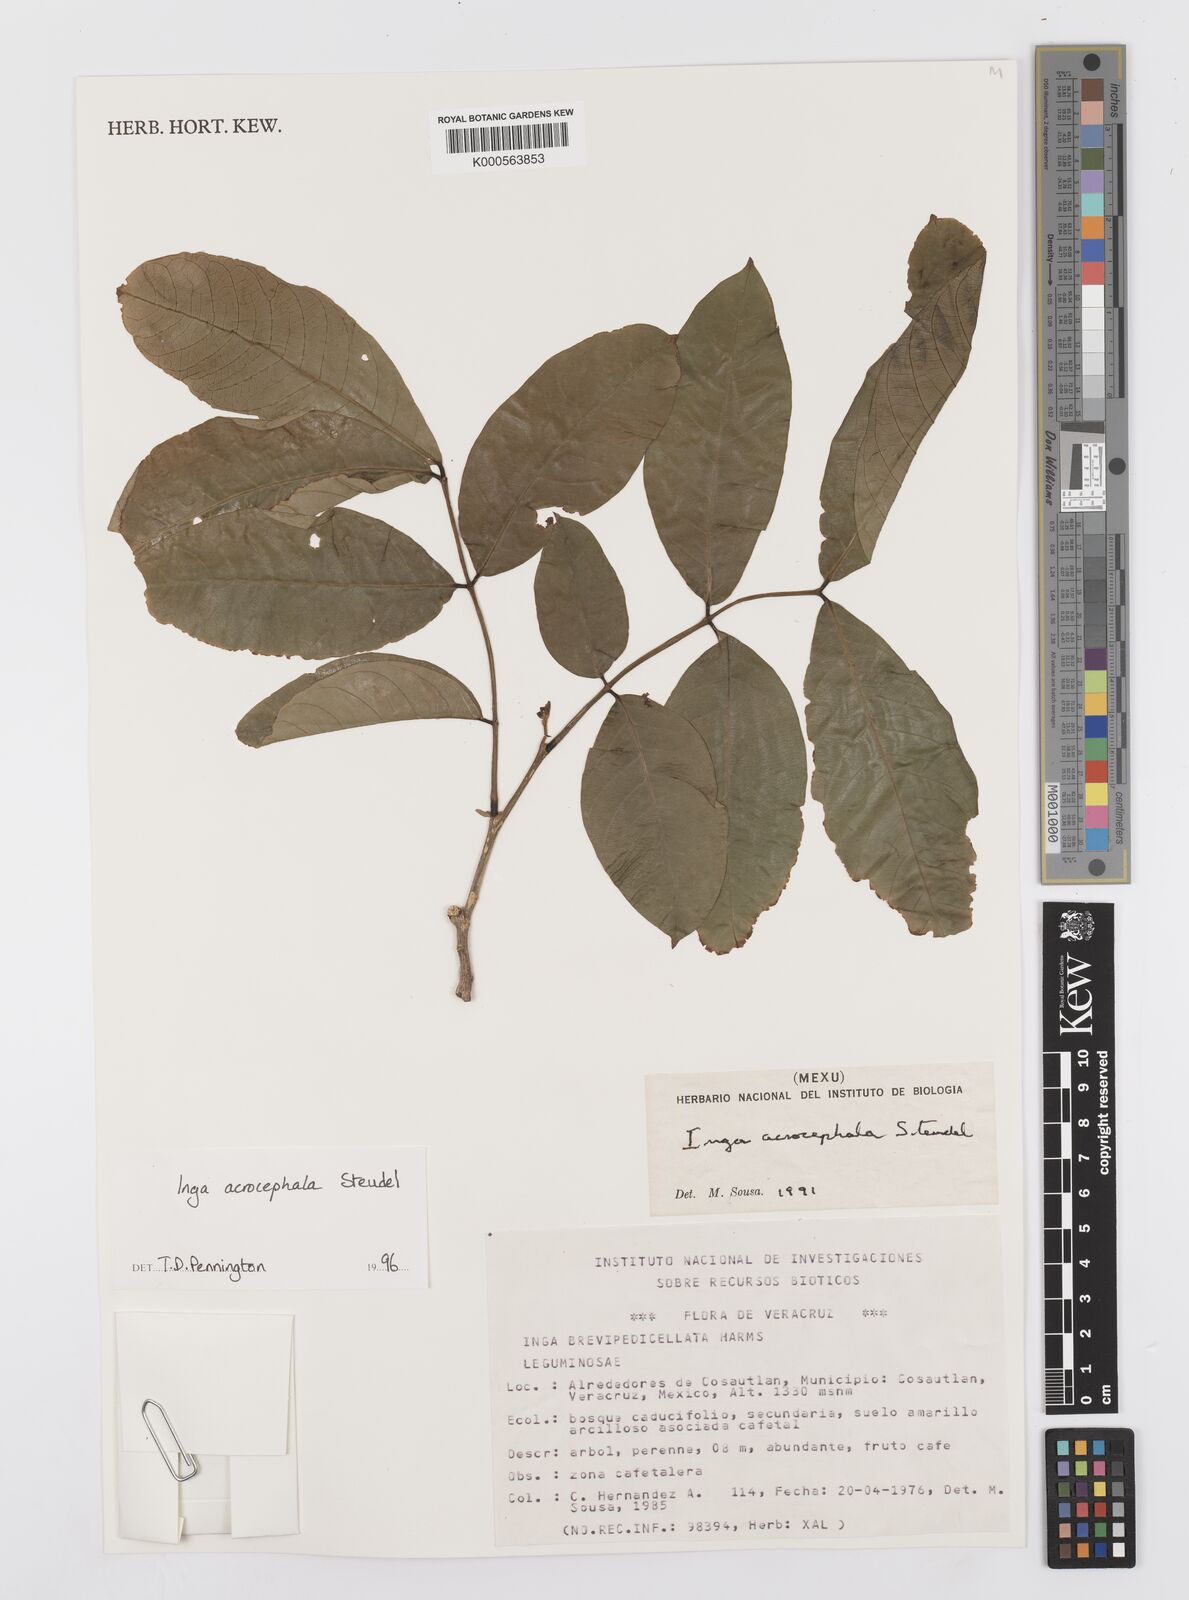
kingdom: Plantae
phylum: Tracheophyta
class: Magnoliopsida
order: Fabales
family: Fabaceae
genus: Inga
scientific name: Inga acrocephala
